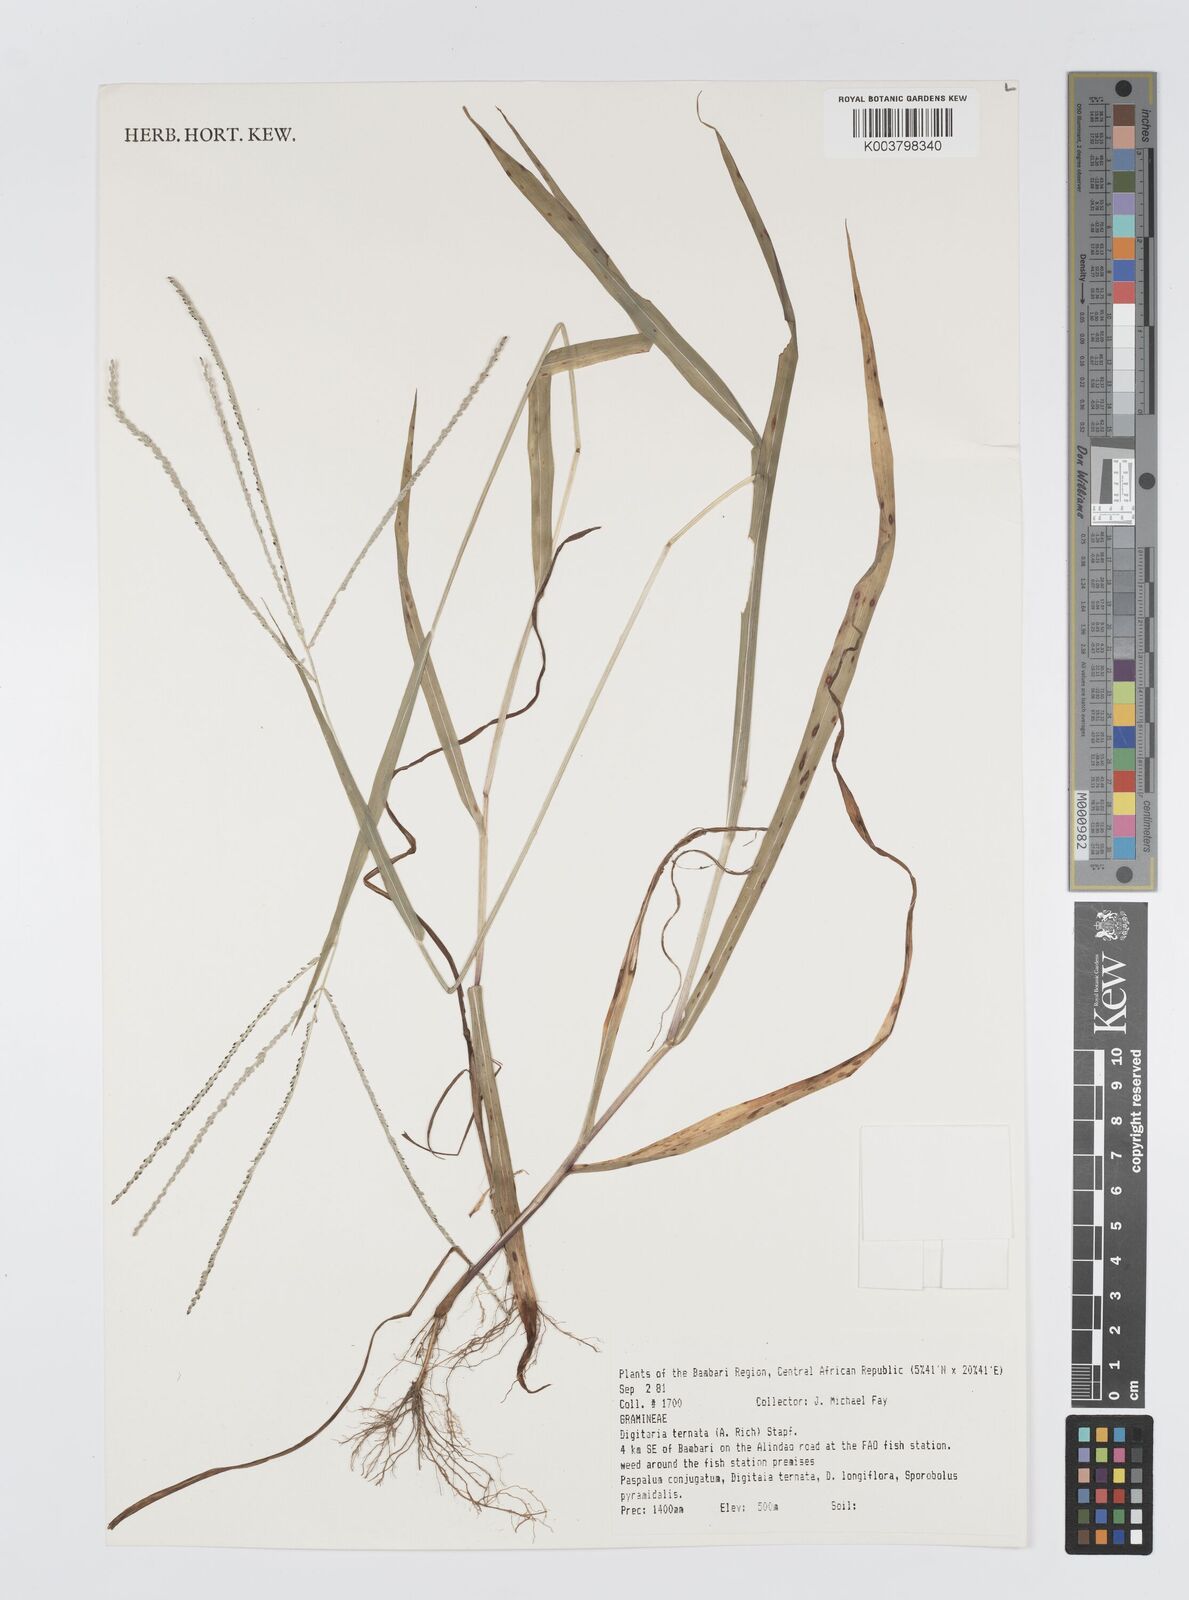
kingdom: Plantae
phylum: Tracheophyta
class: Liliopsida
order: Poales
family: Poaceae
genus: Digitaria
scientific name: Digitaria ternata
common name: Blackseed crabgrass
